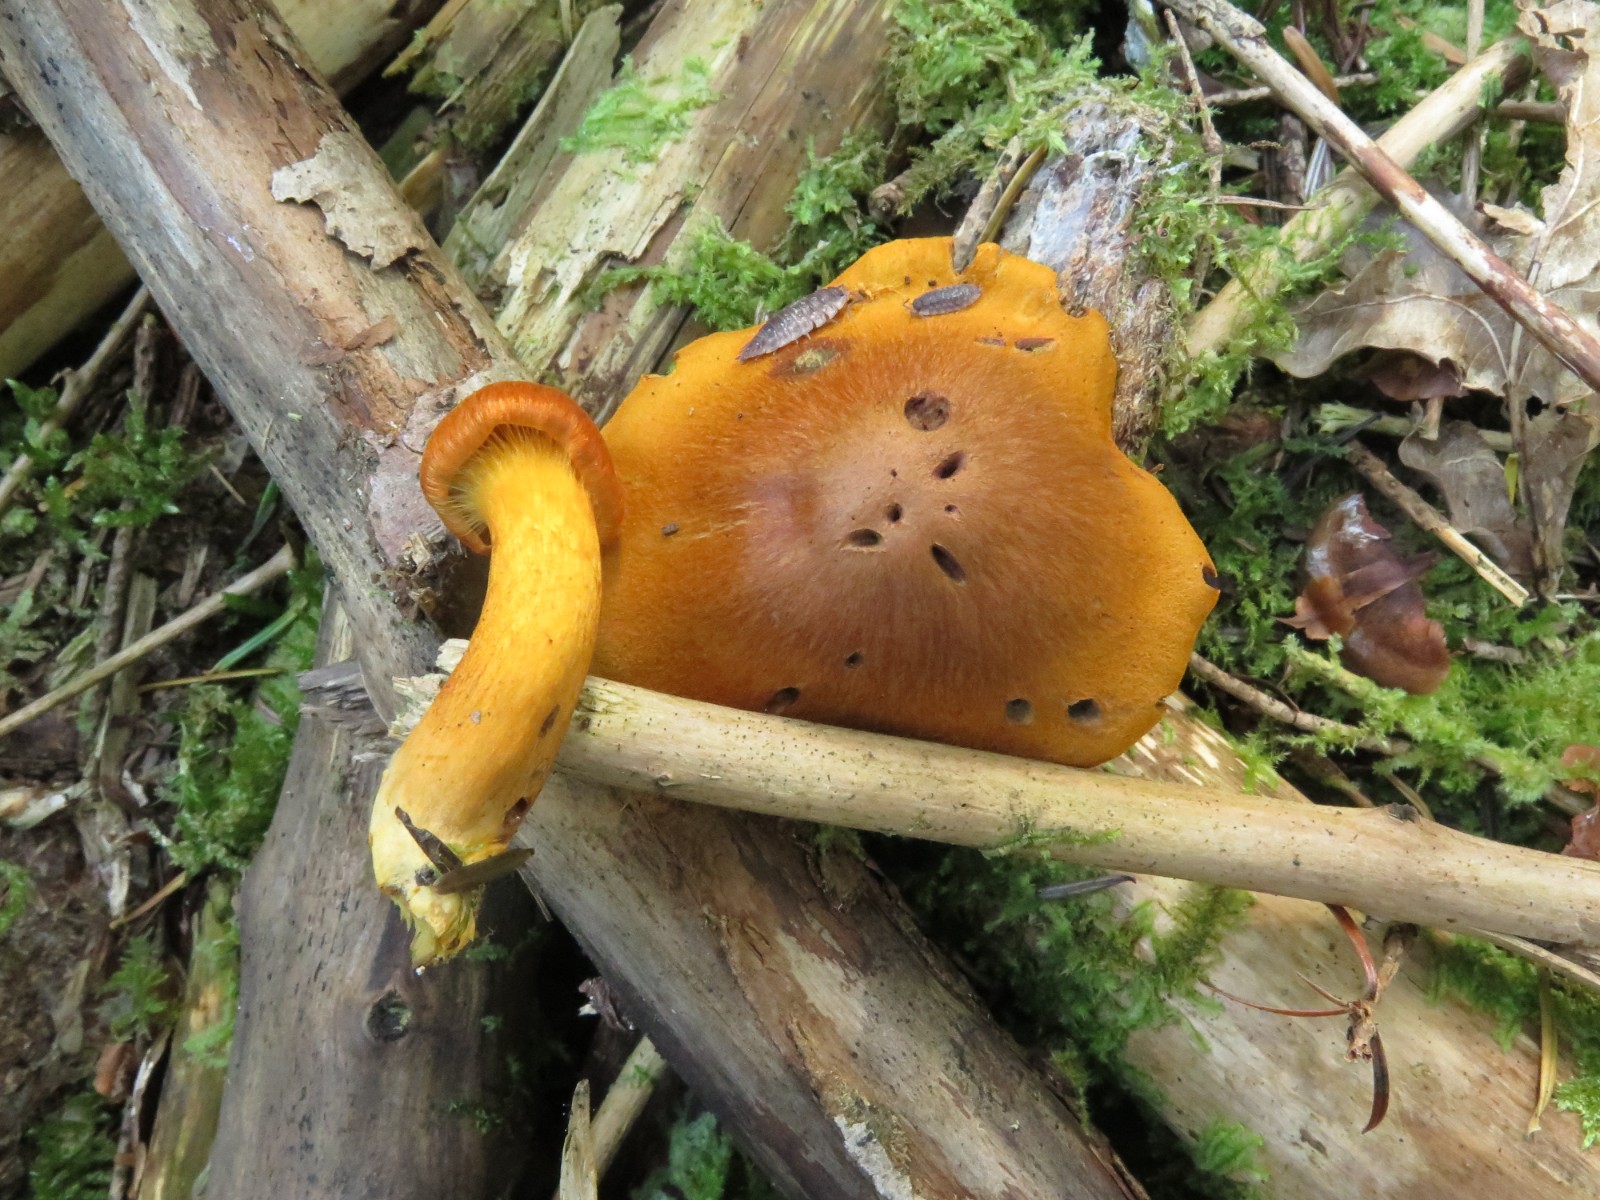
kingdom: Fungi
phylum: Basidiomycota
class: Agaricomycetes
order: Agaricales
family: Hymenogastraceae
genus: Gymnopilus
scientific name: Gymnopilus penetrans
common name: plettet flammehat
